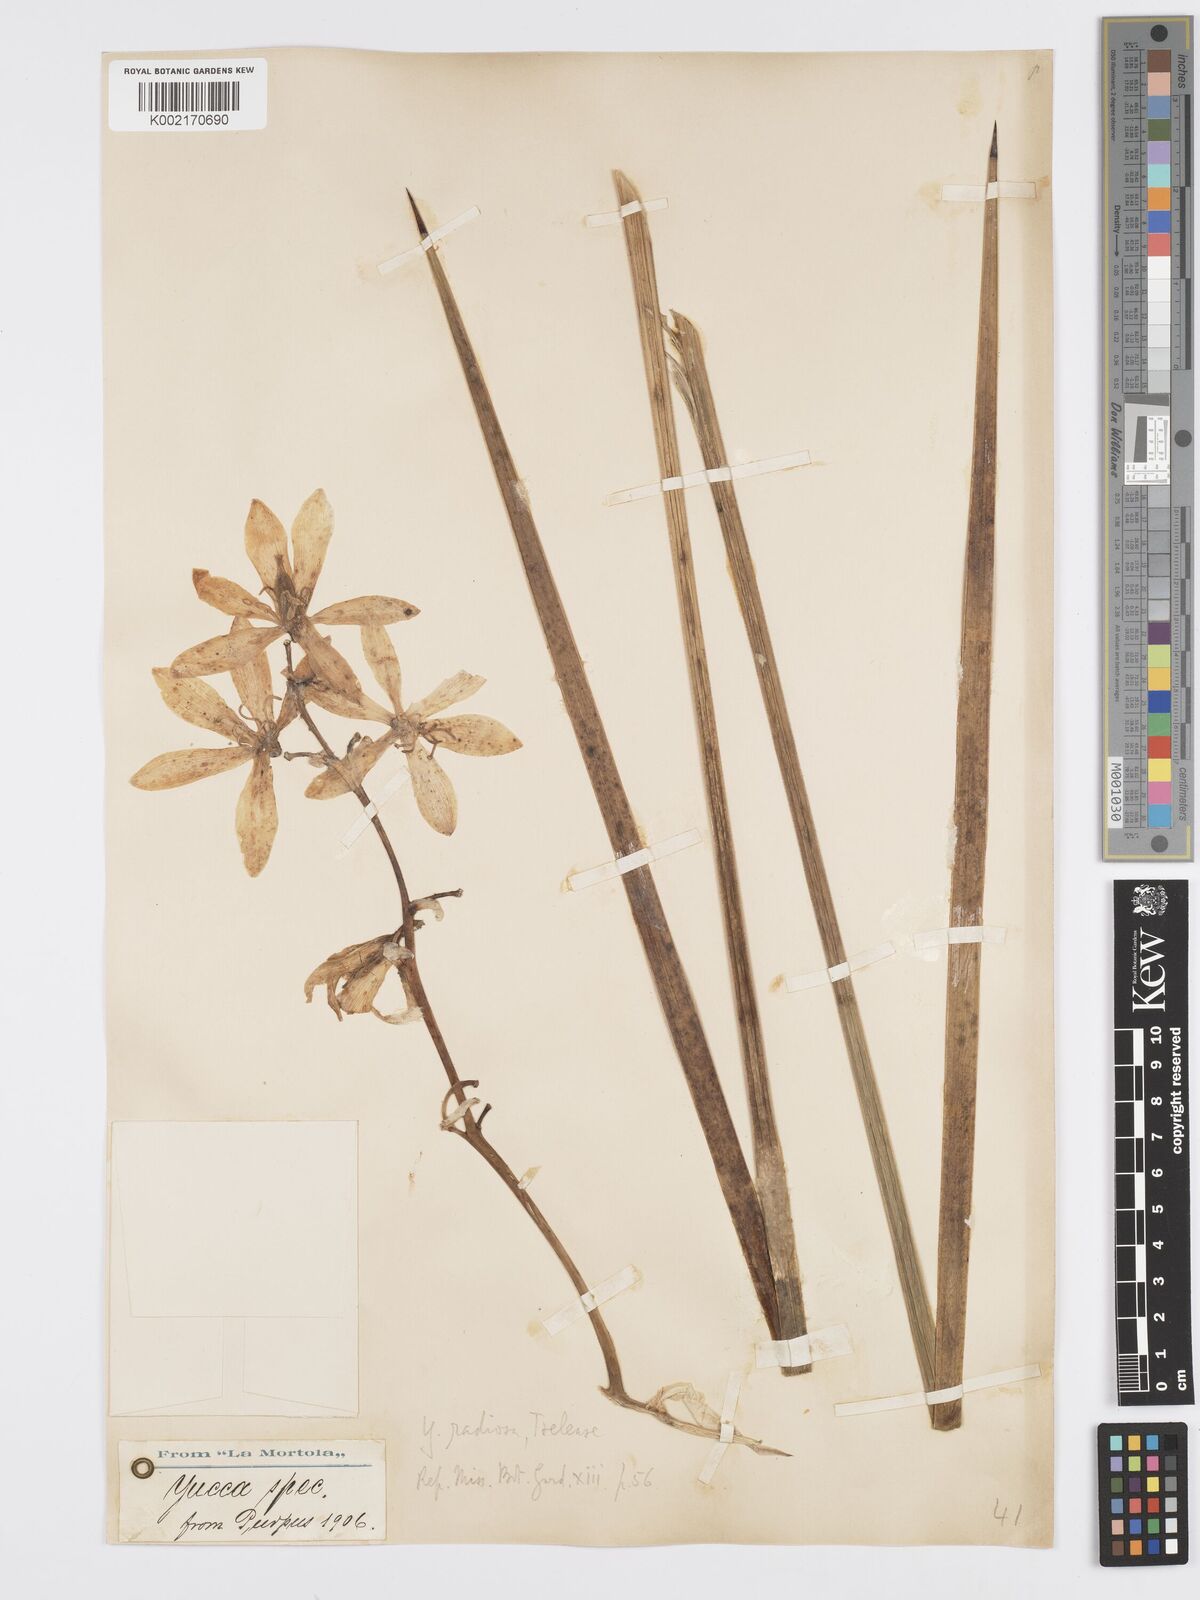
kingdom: Plantae
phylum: Tracheophyta
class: Liliopsida
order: Asparagales
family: Asparagaceae
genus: Yucca
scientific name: Yucca elata
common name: Palmella
